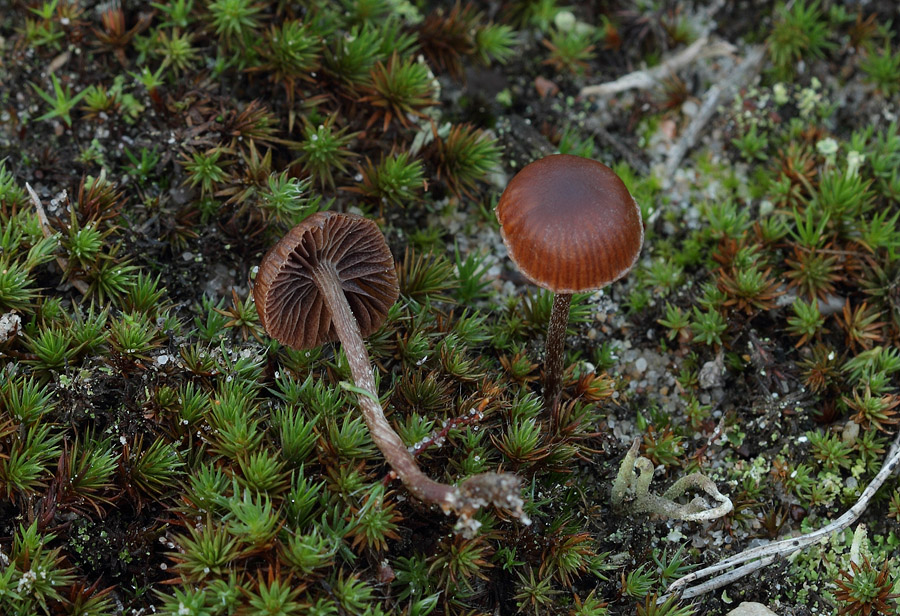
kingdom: Fungi
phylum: Basidiomycota
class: Agaricomycetes
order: Agaricales
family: Strophariaceae
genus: Deconica
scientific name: Deconica montana
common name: rødbrun stråhat
